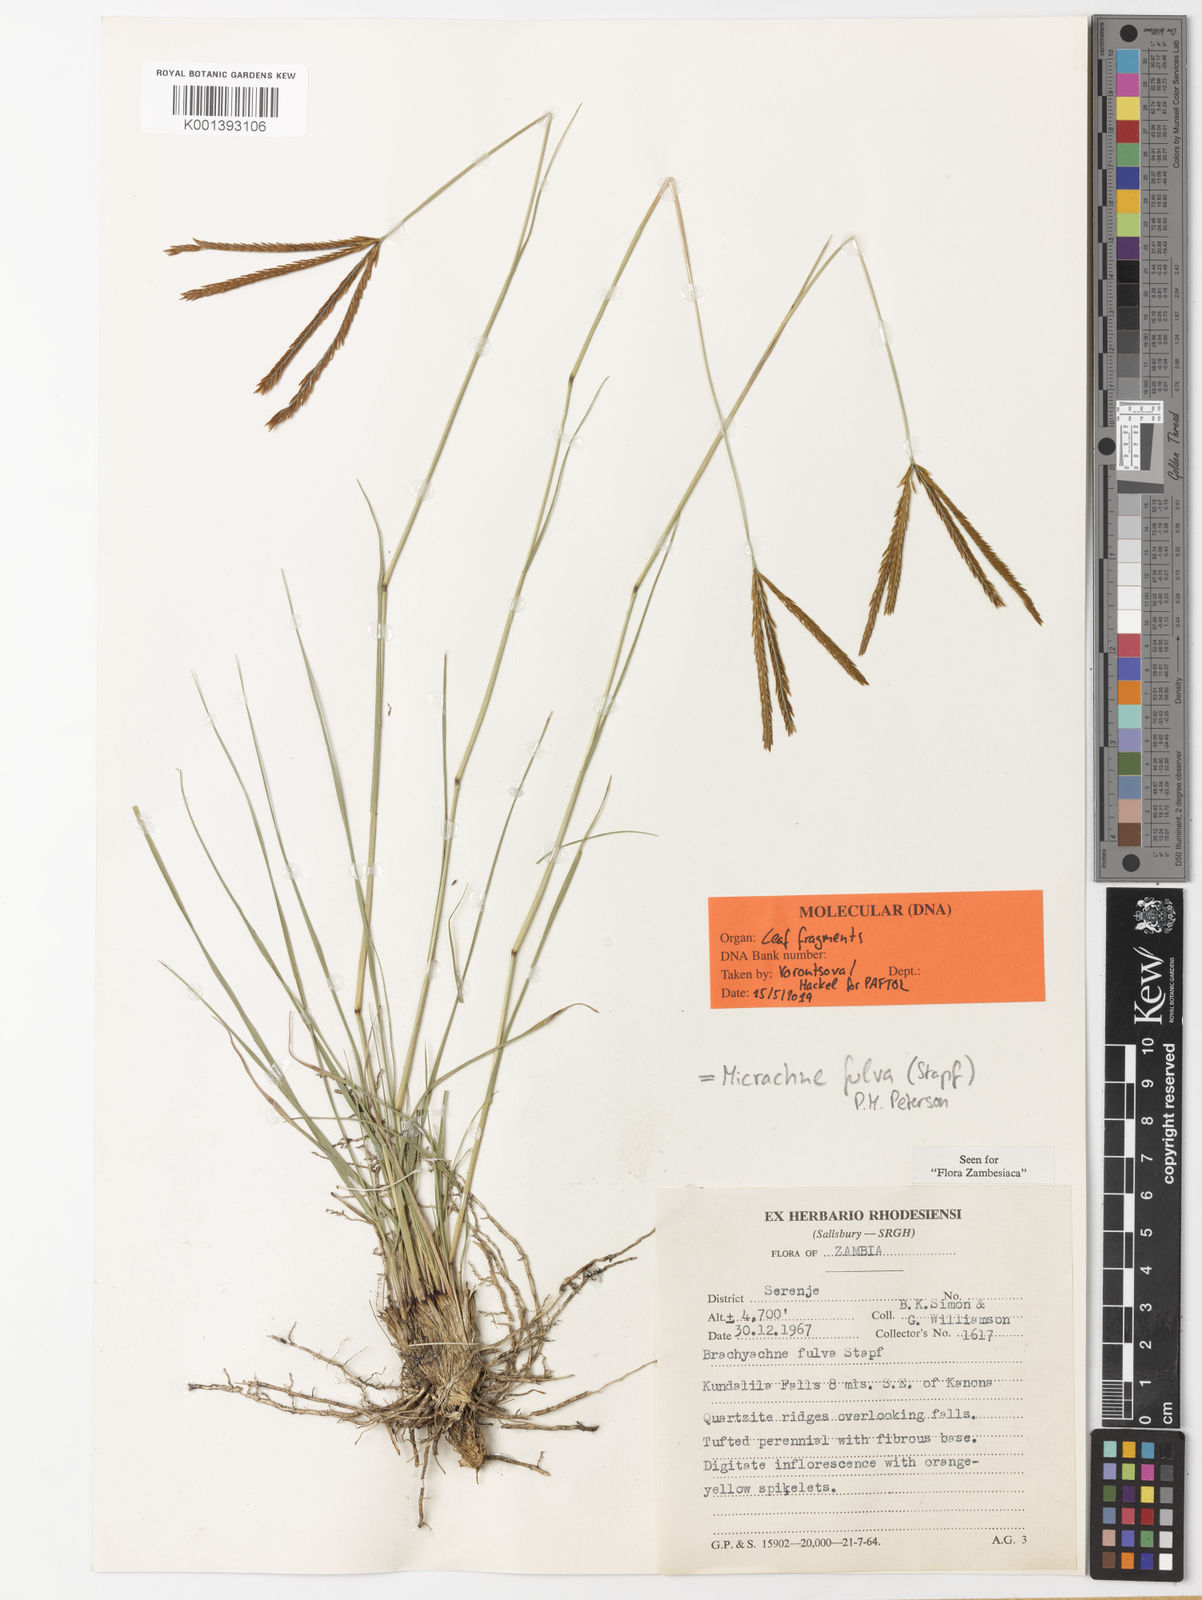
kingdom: Plantae
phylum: Tracheophyta
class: Liliopsida
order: Poales
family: Poaceae
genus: Micrachne
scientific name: Micrachne fulva
